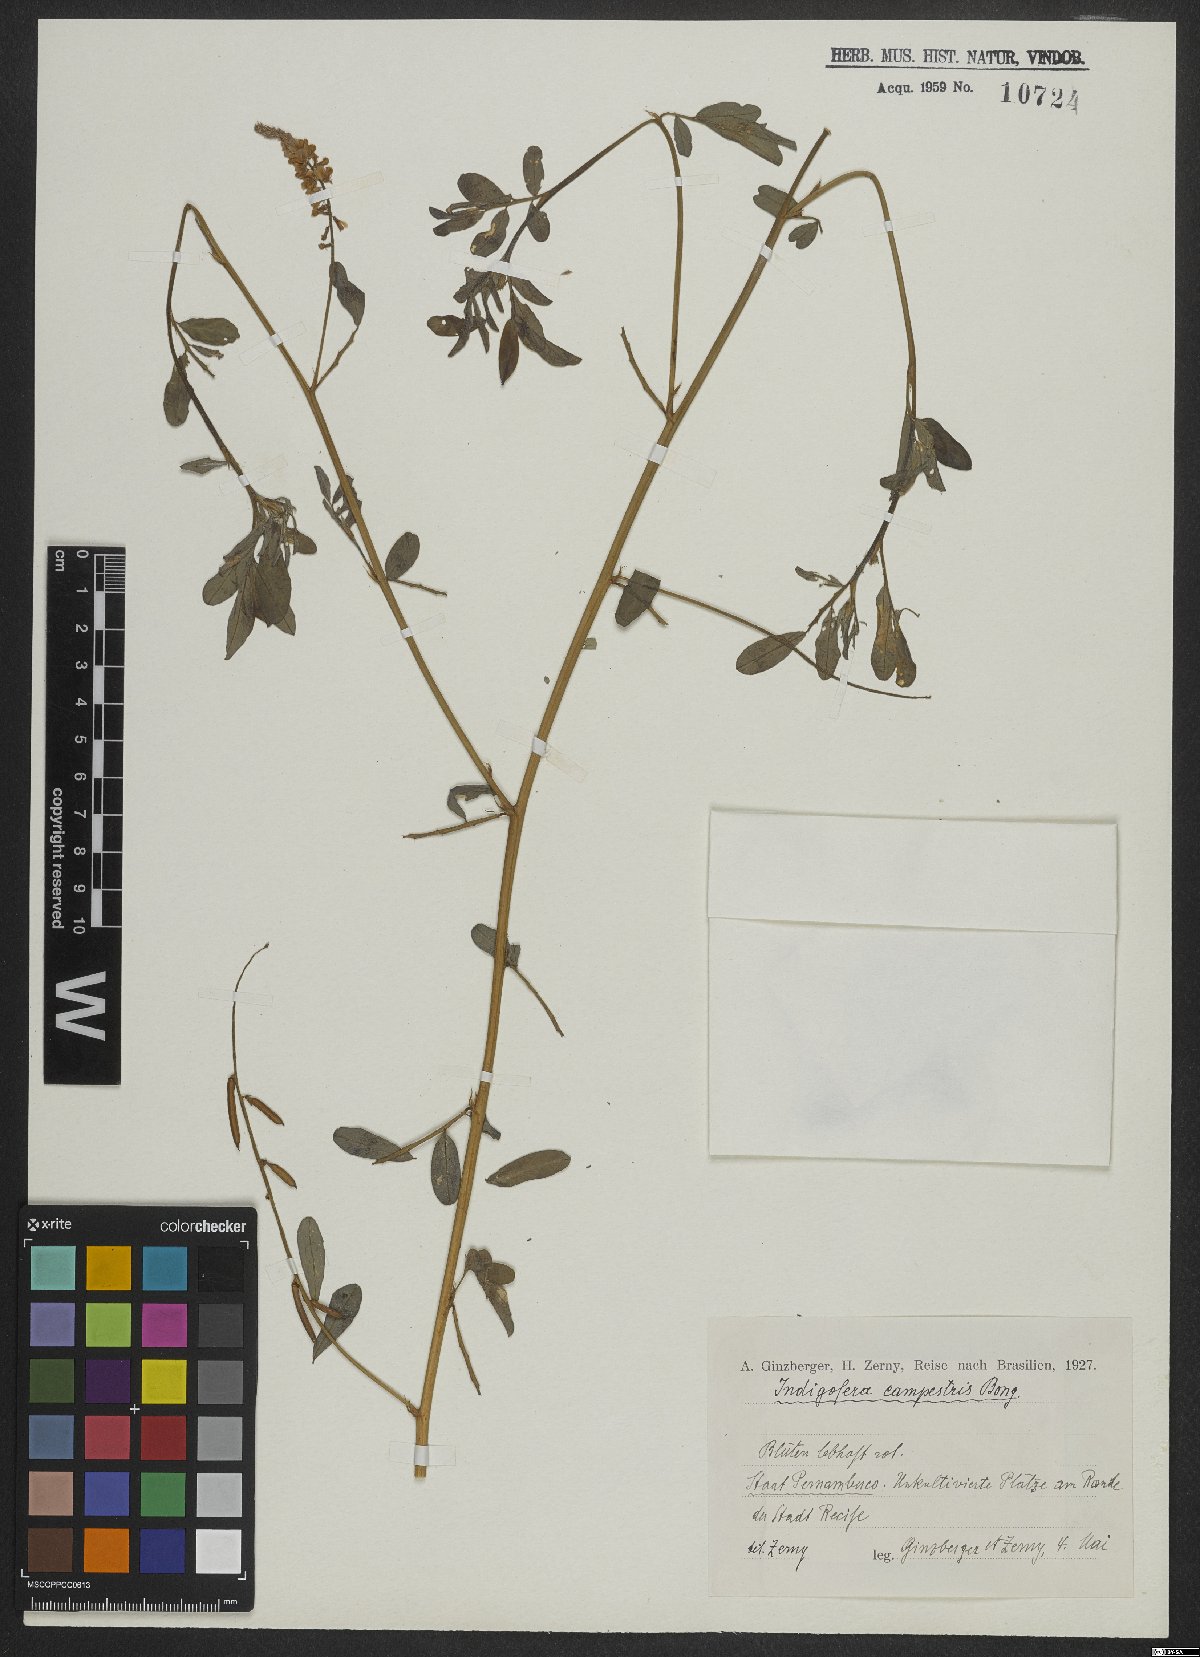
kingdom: Plantae
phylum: Tracheophyta
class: Magnoliopsida
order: Fabales
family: Fabaceae
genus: Indigofera
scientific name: Indigofera campestris
